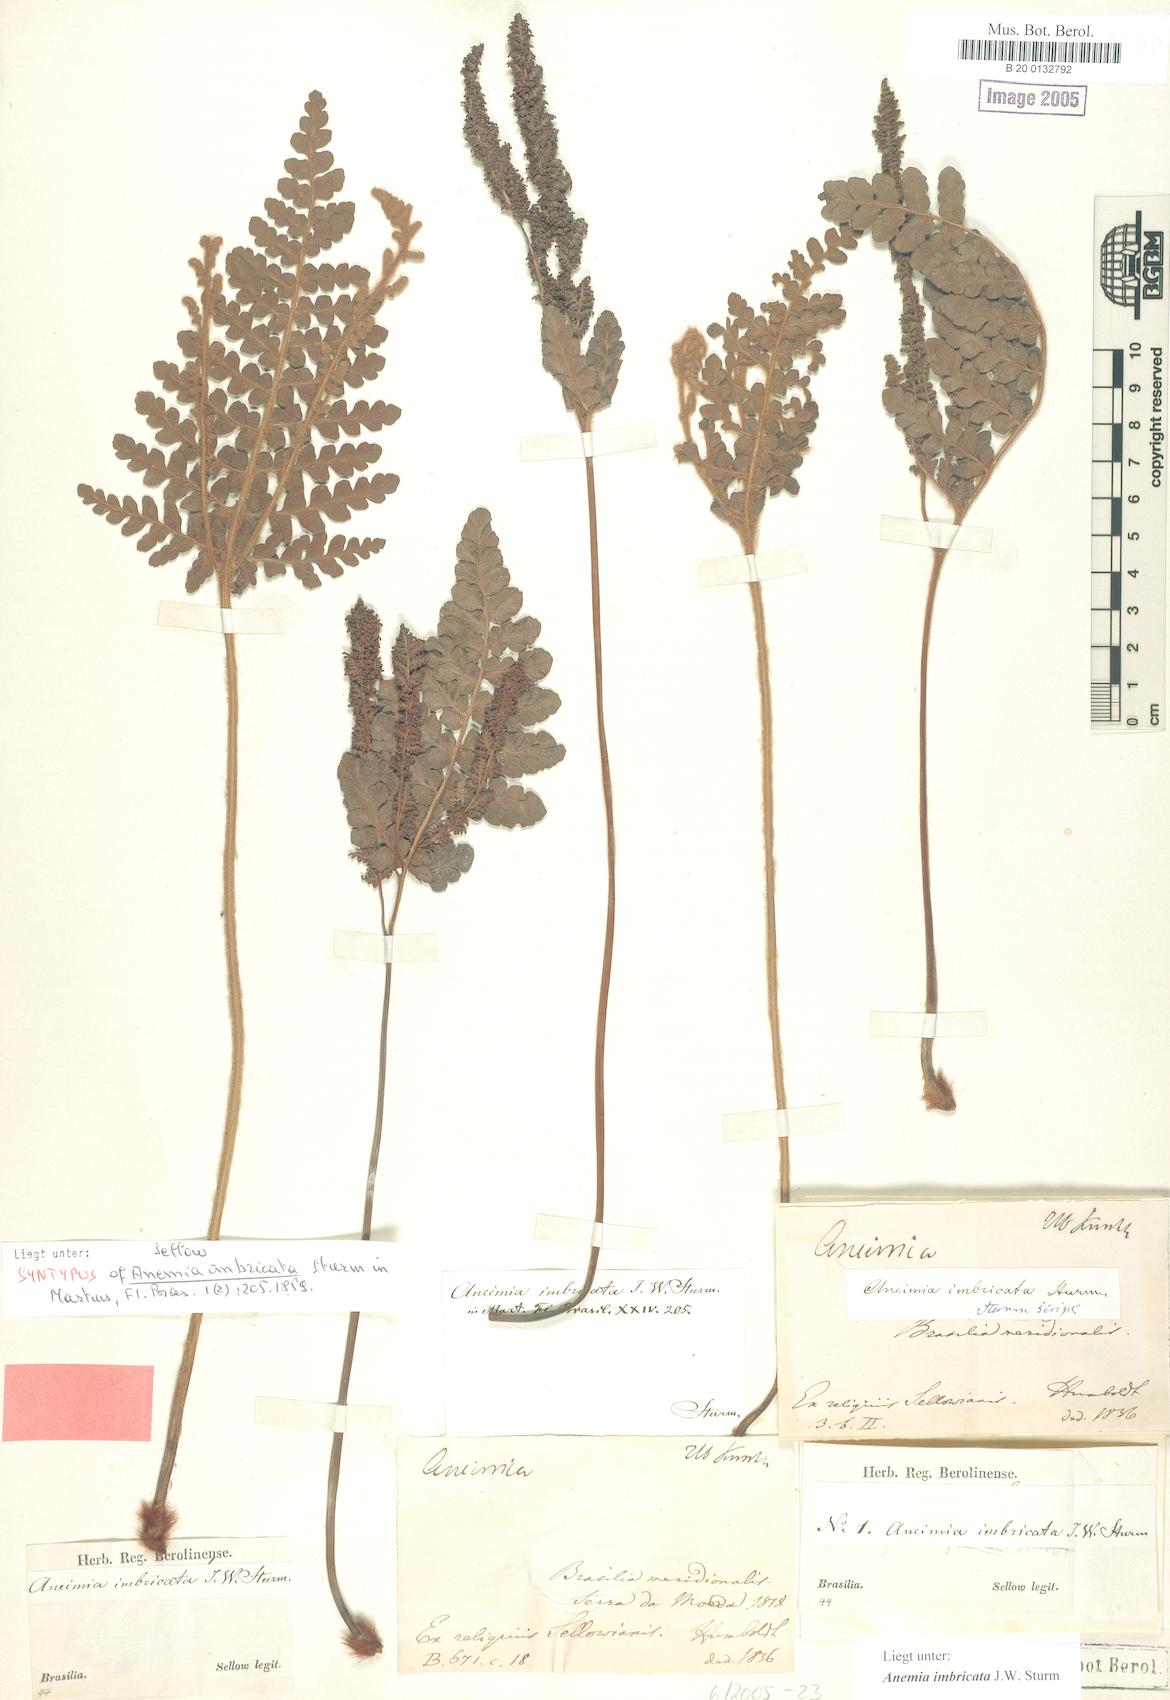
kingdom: Plantae
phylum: Tracheophyta
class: Polypodiopsida
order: Schizaeales
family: Anemiaceae
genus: Anemia
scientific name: Anemia imbricata
